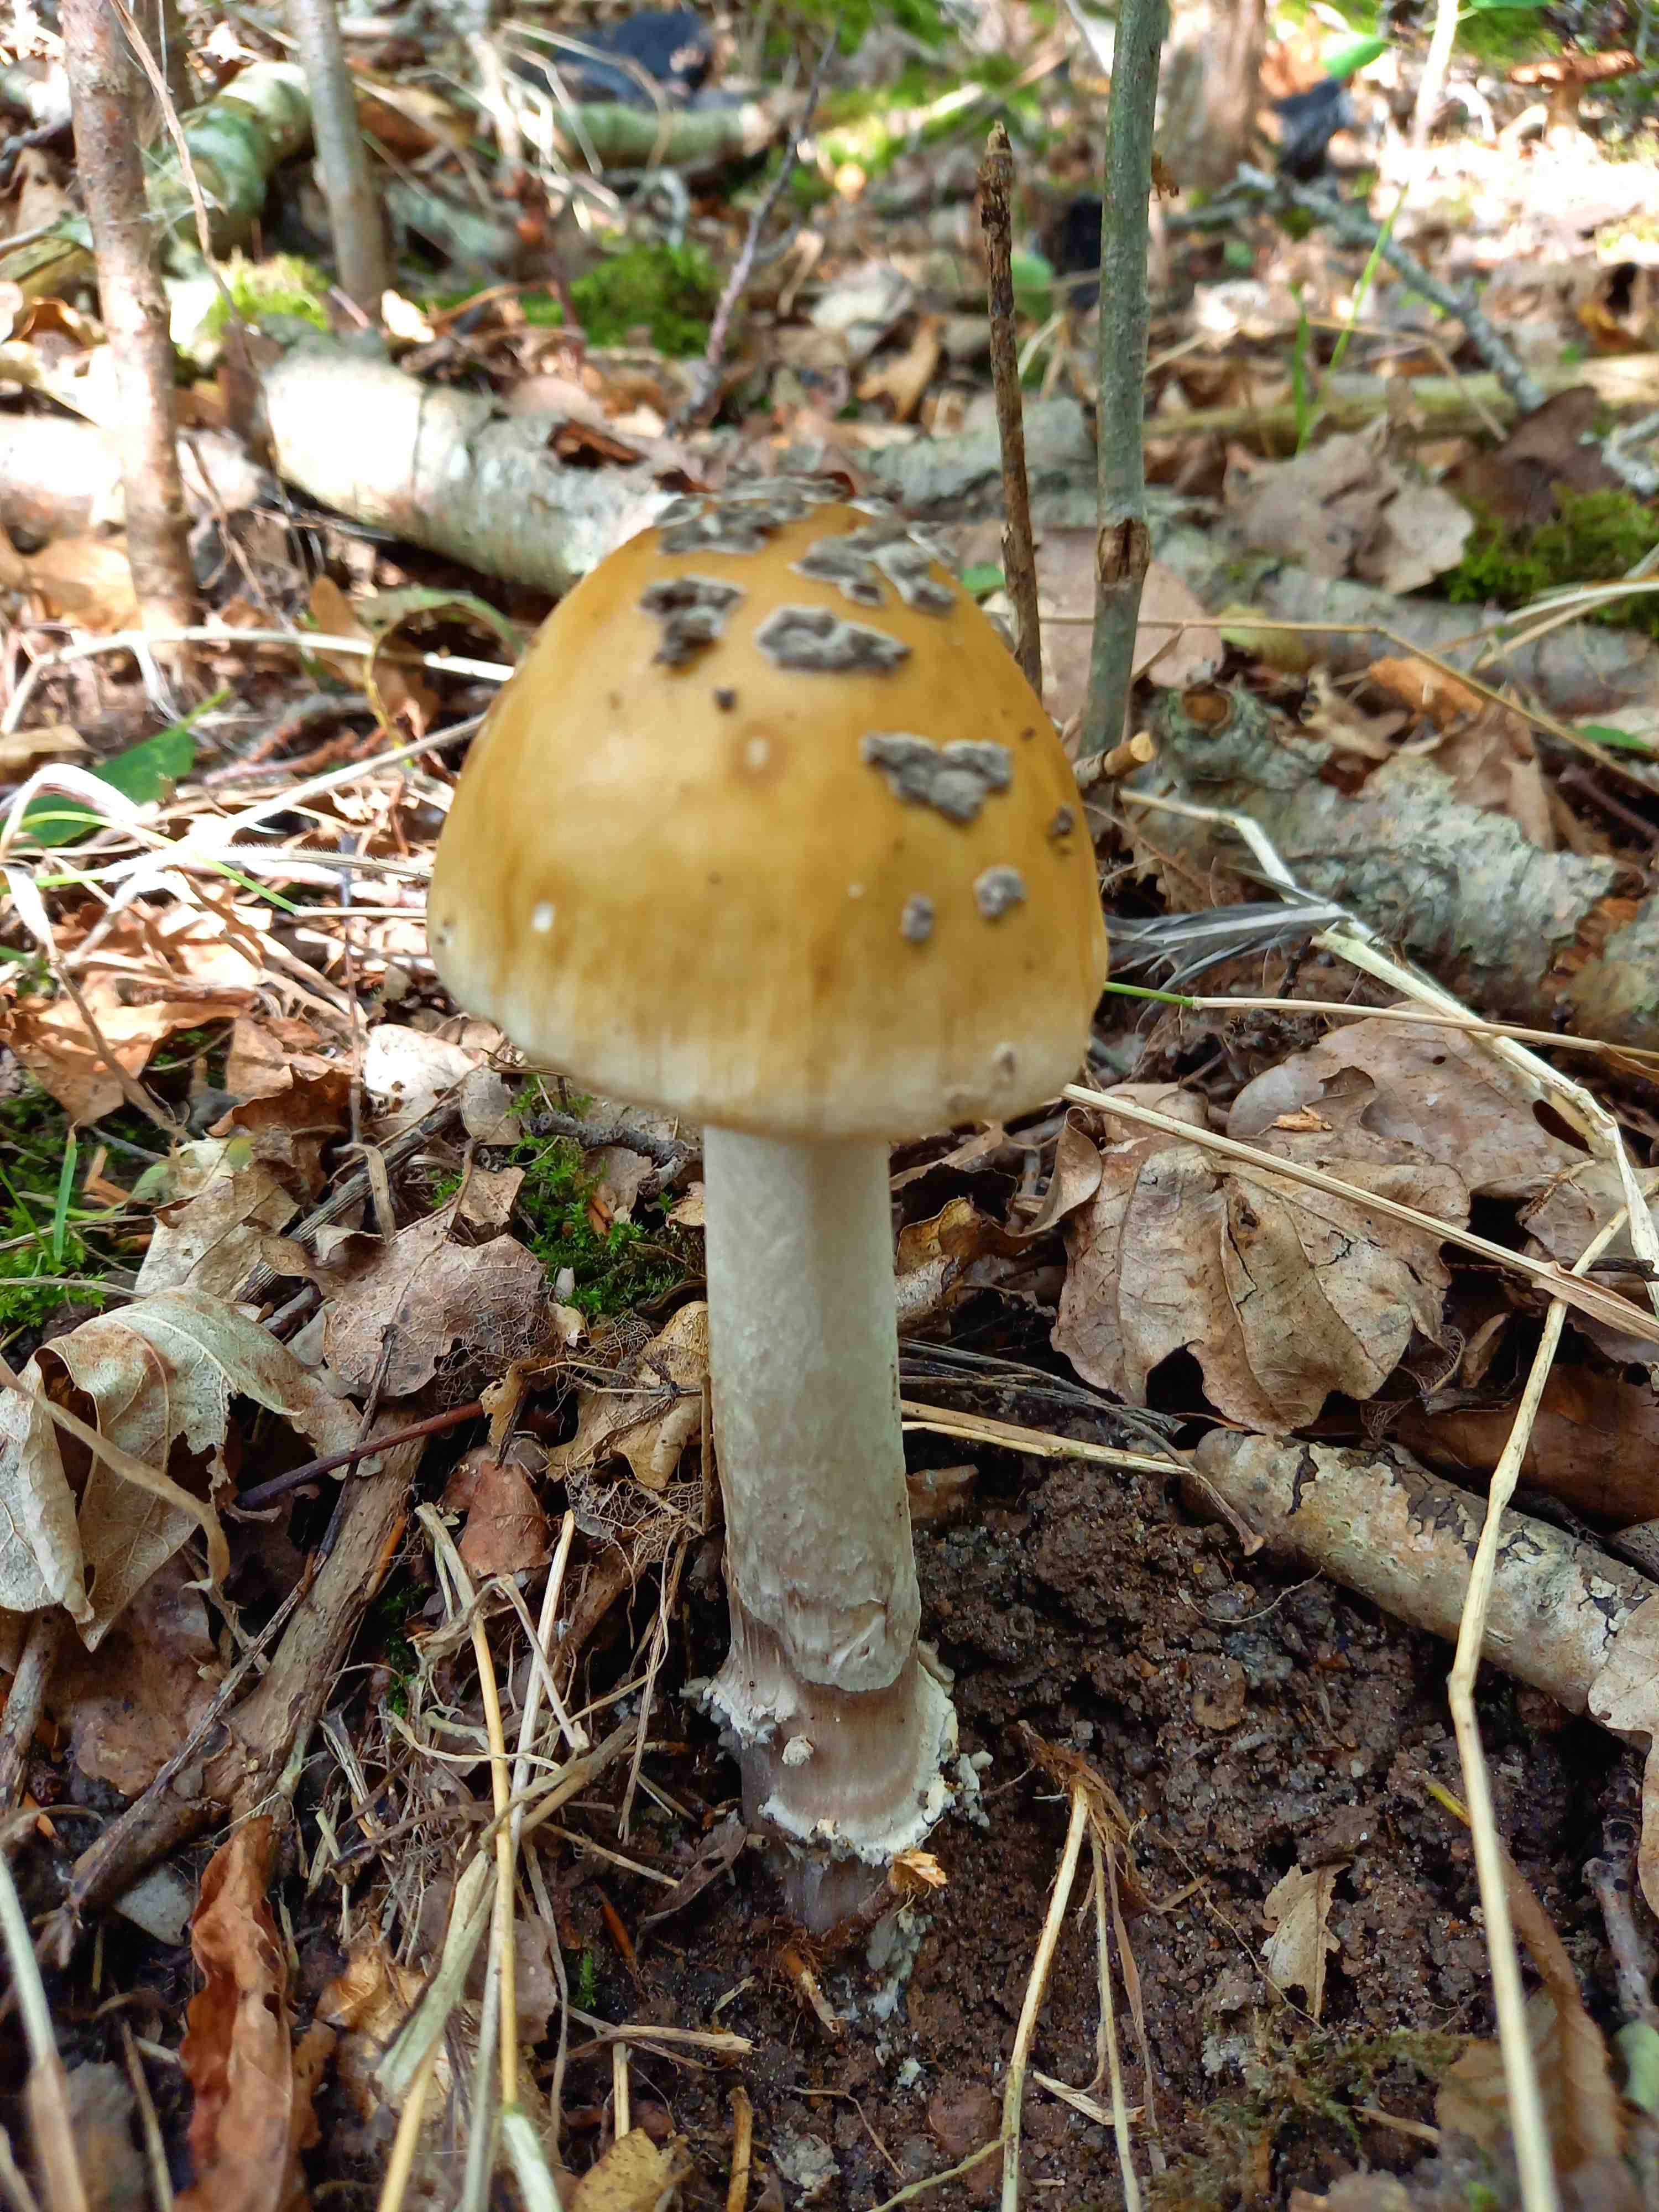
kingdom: Fungi
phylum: Basidiomycota
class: Agaricomycetes
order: Agaricales
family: Amanitaceae
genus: Amanita
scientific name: Amanita ceciliae
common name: stor kam-fluesvamp
